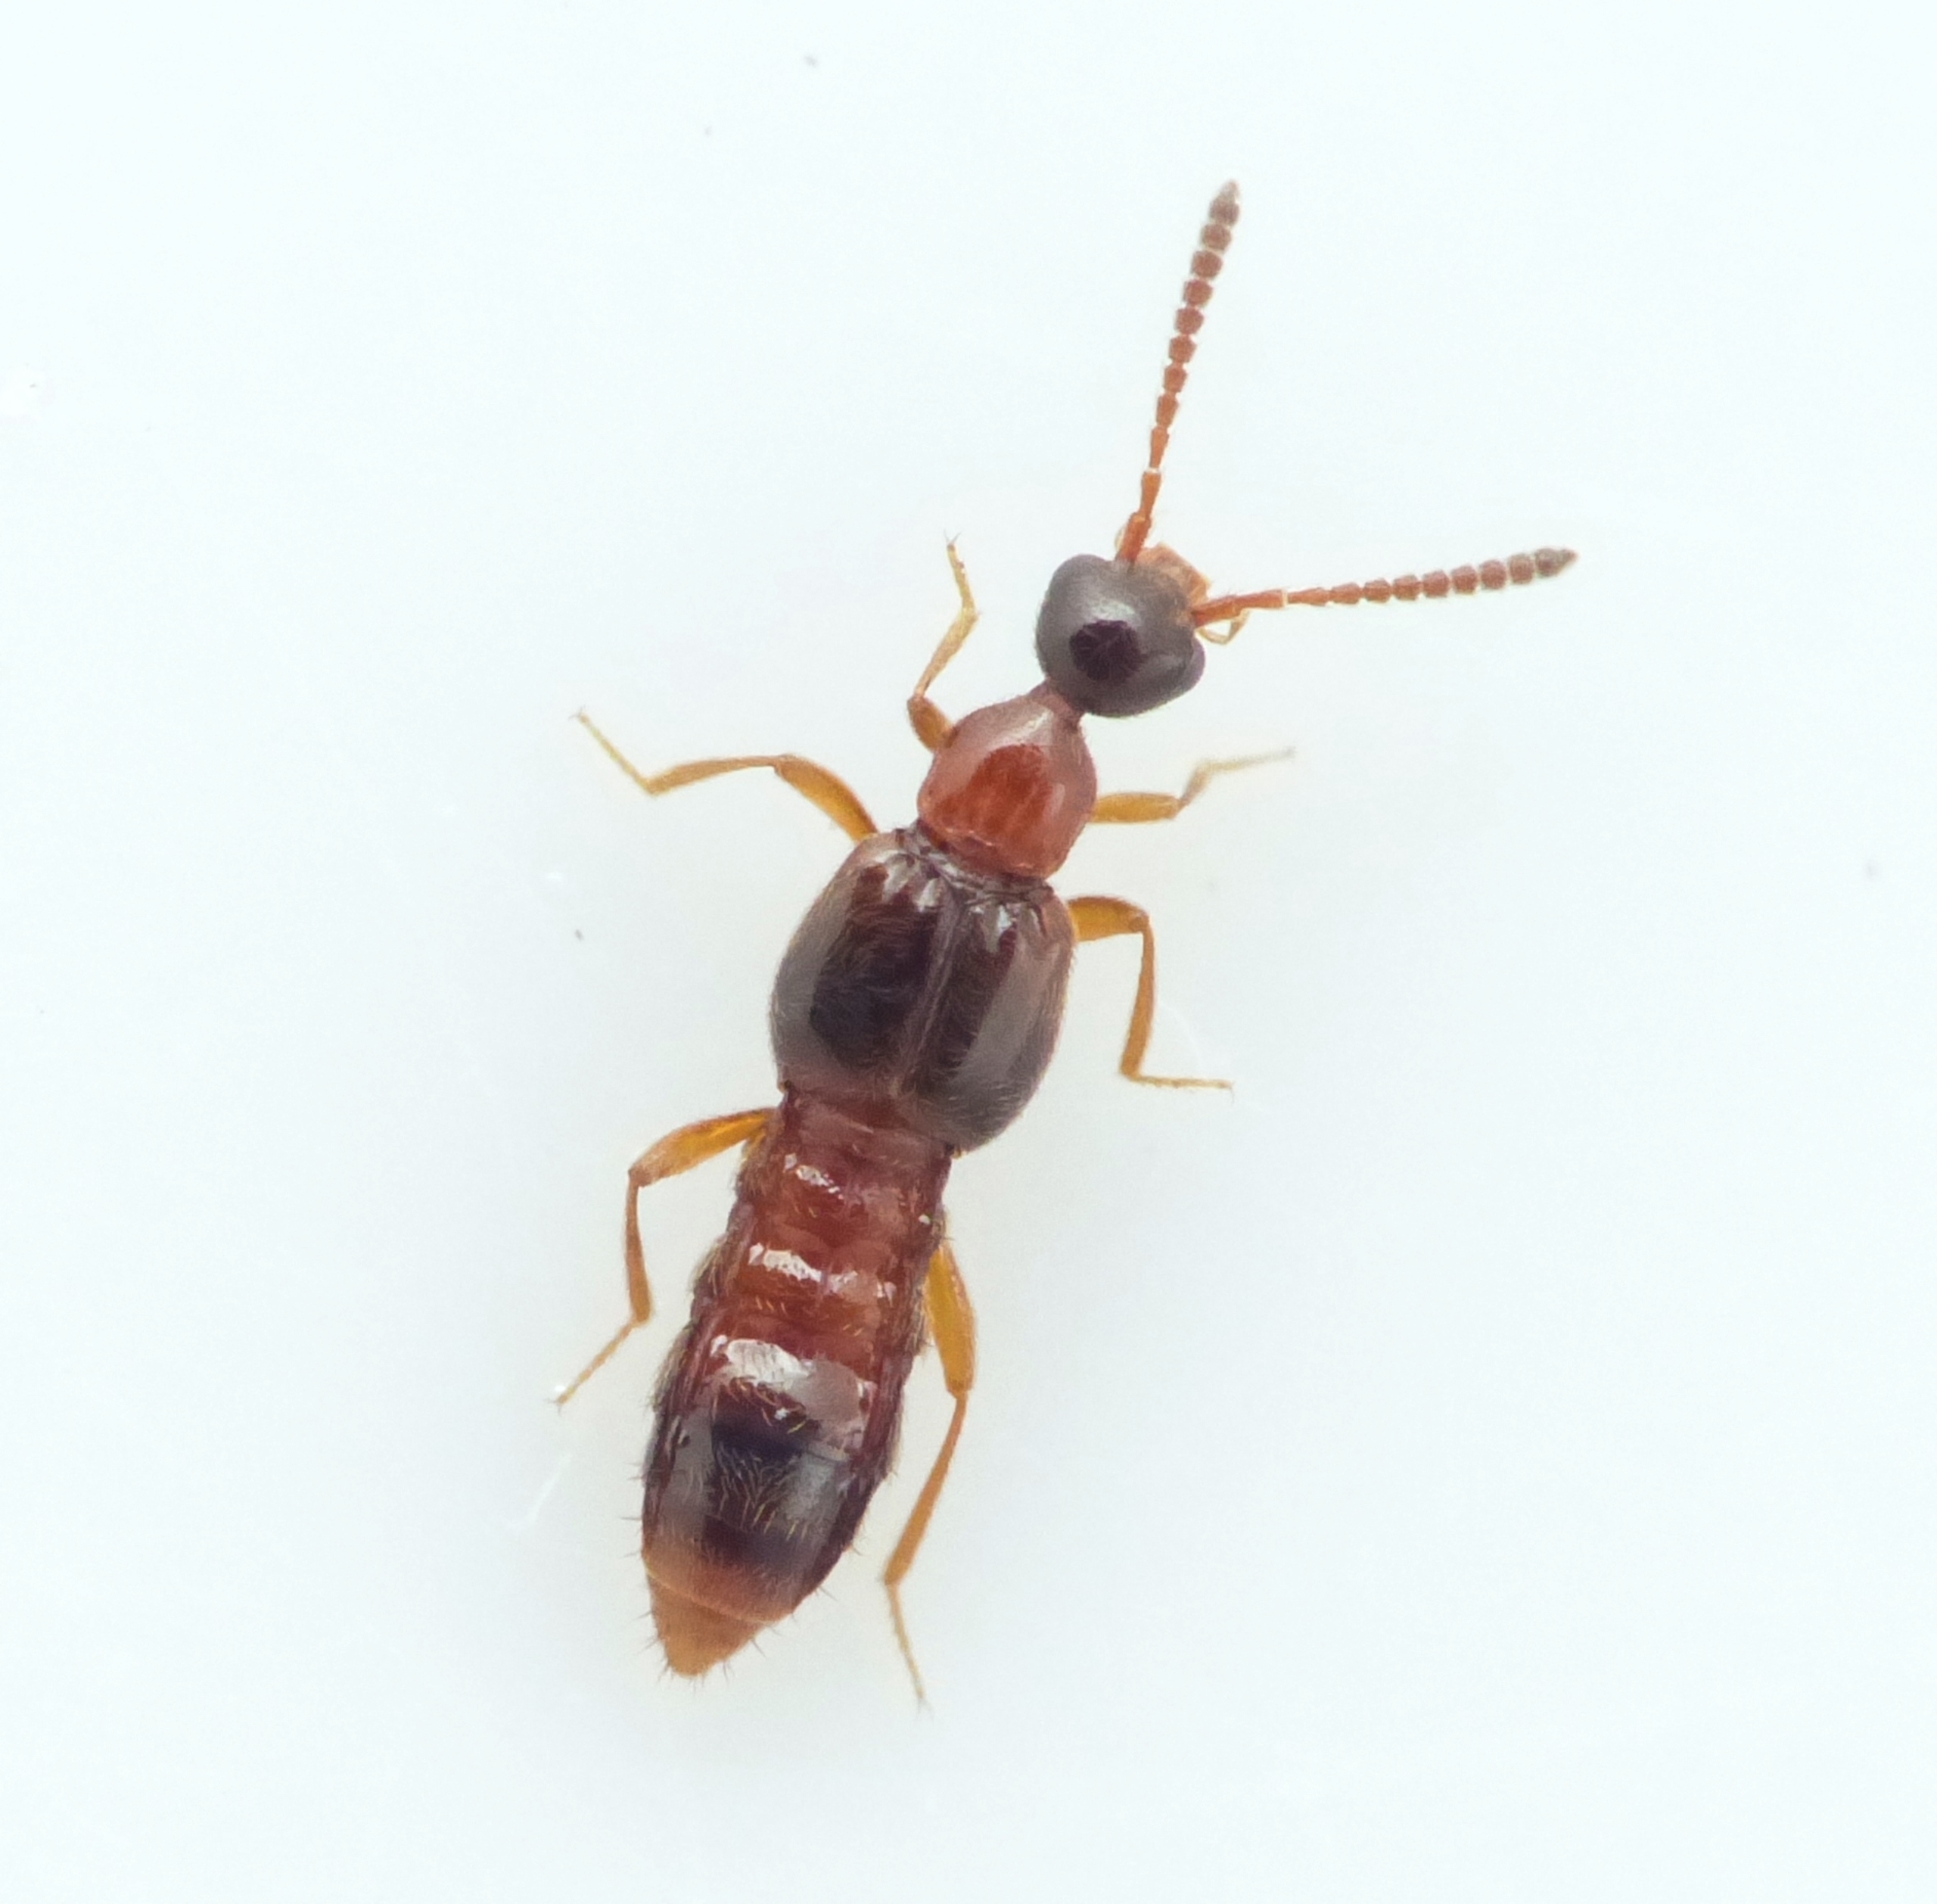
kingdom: Animalia
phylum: Arthropoda
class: Insecta
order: Coleoptera
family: Staphylinidae
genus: Autalia
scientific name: Autalia longicornis
